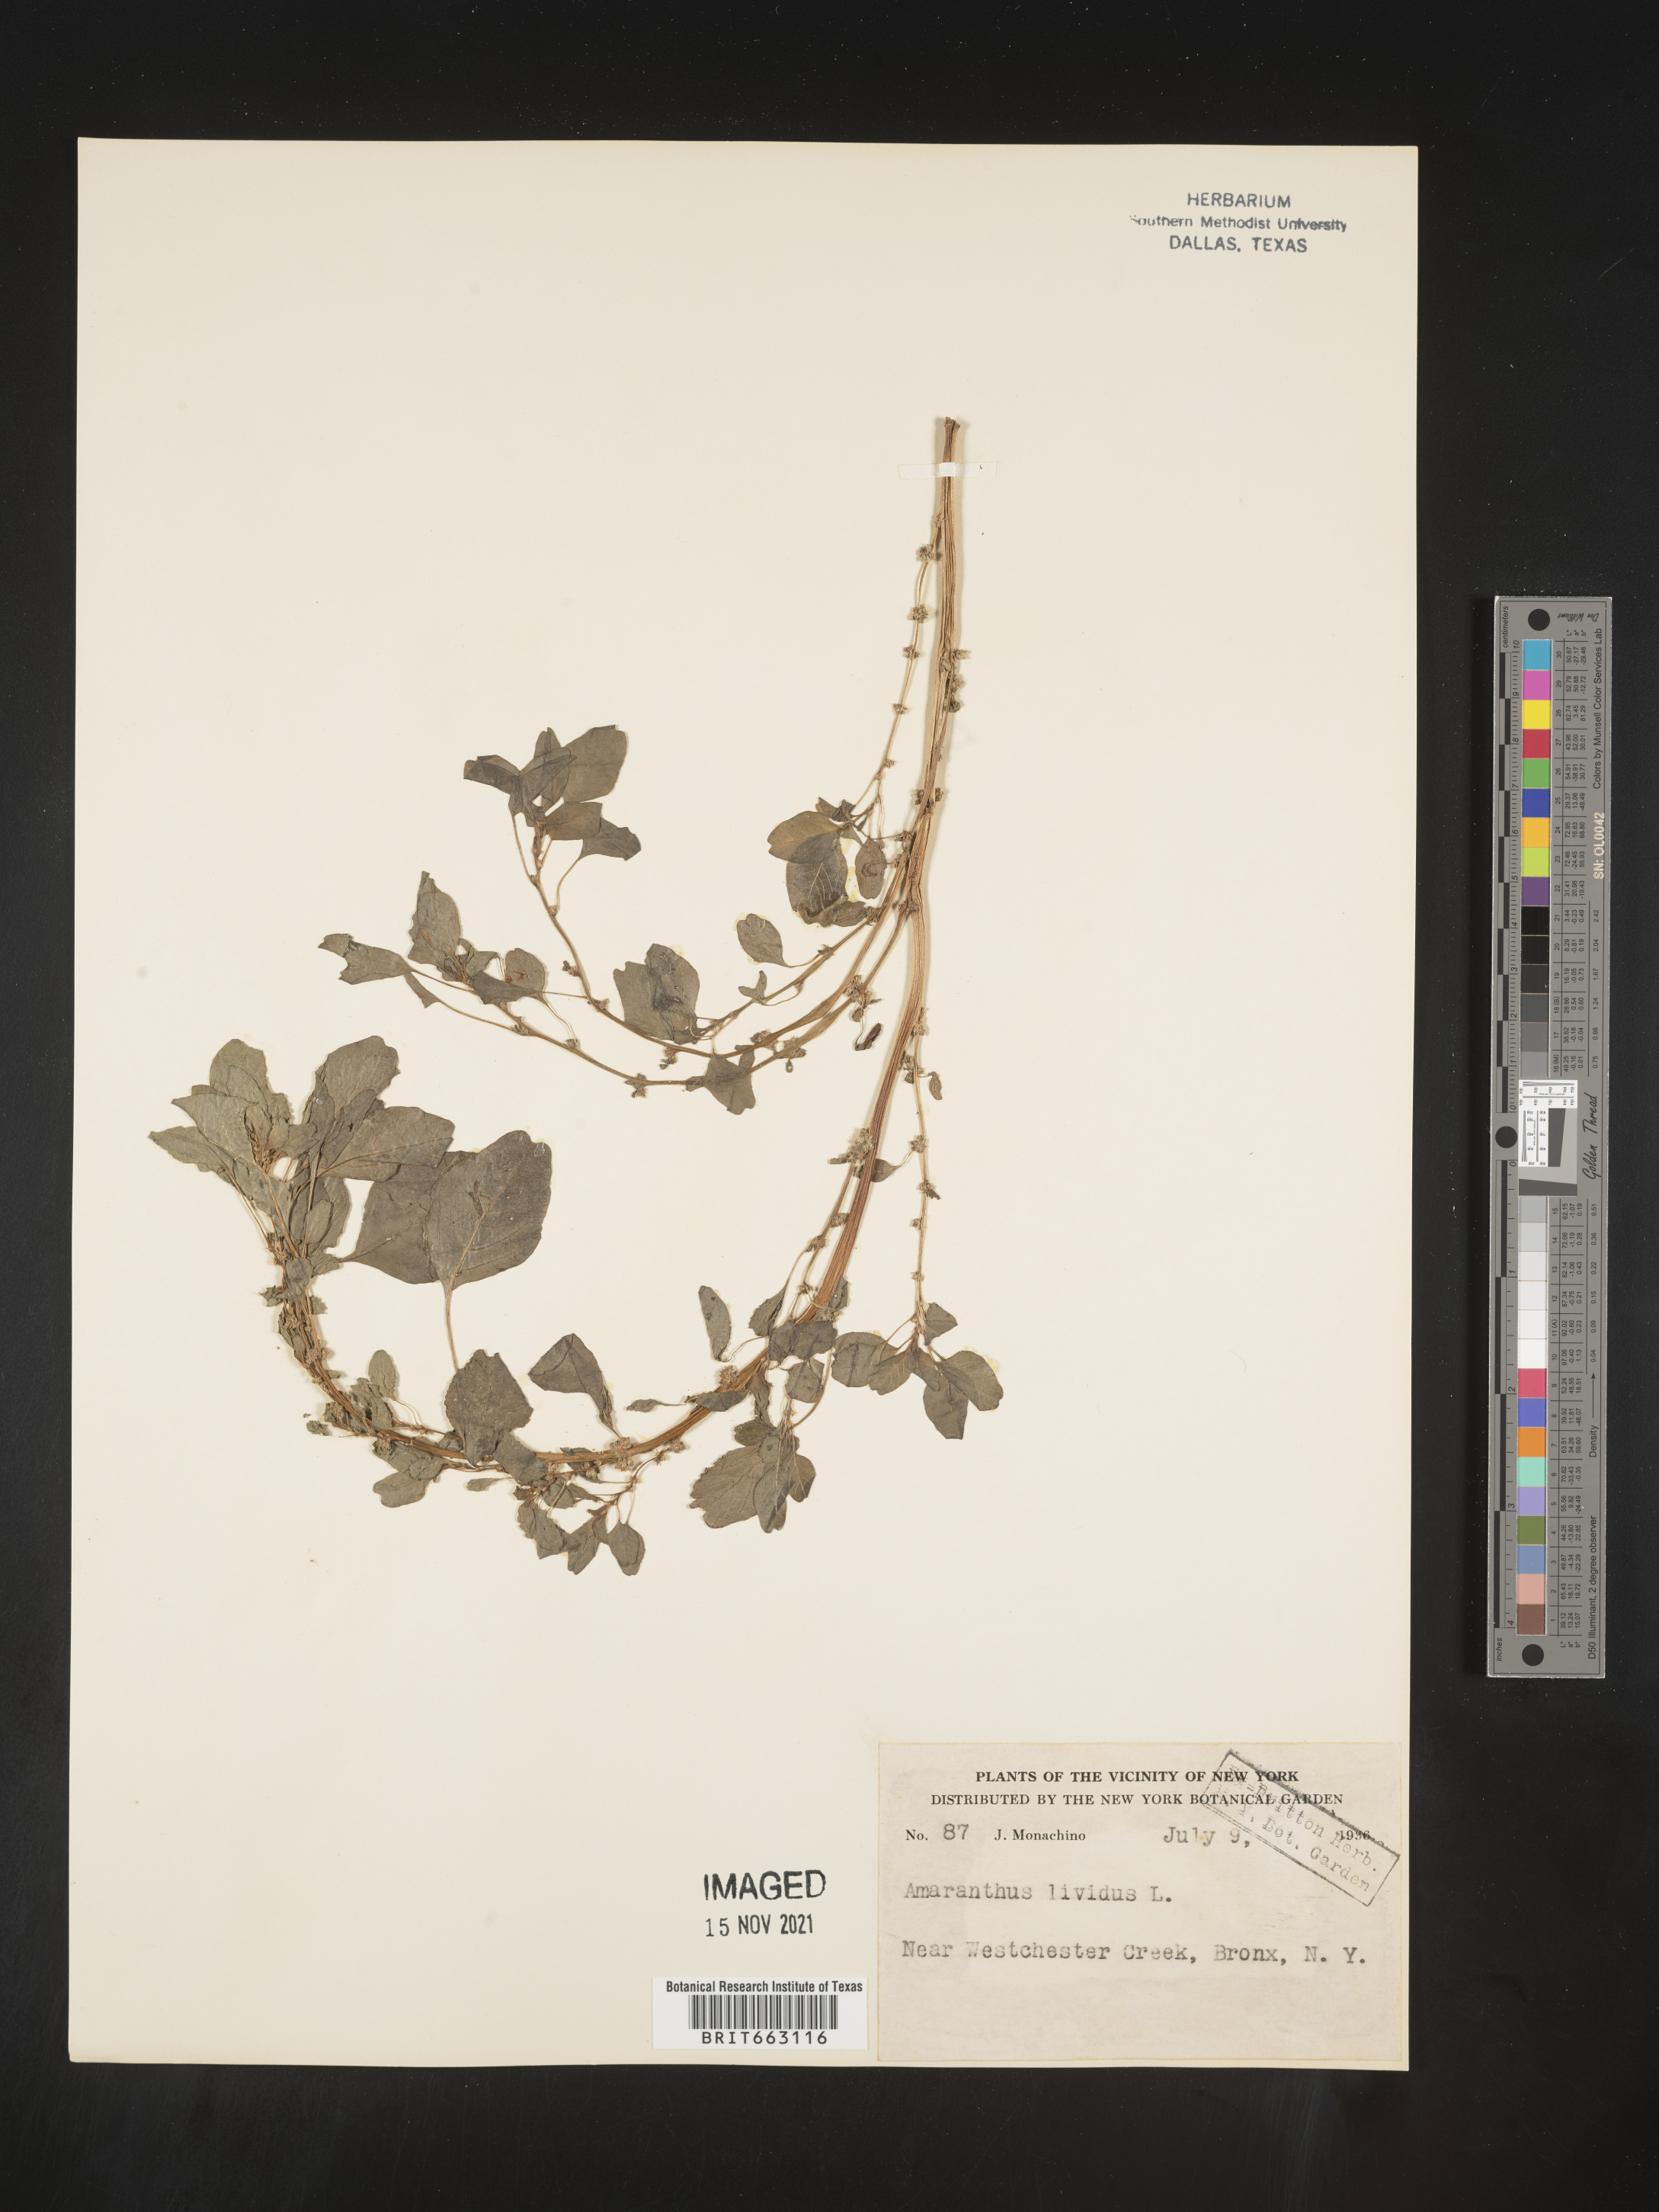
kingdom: Plantae
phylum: Tracheophyta
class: Magnoliopsida
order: Caryophyllales
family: Amaranthaceae
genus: Amaranthus
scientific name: Amaranthus viridis
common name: Slender amaranth
